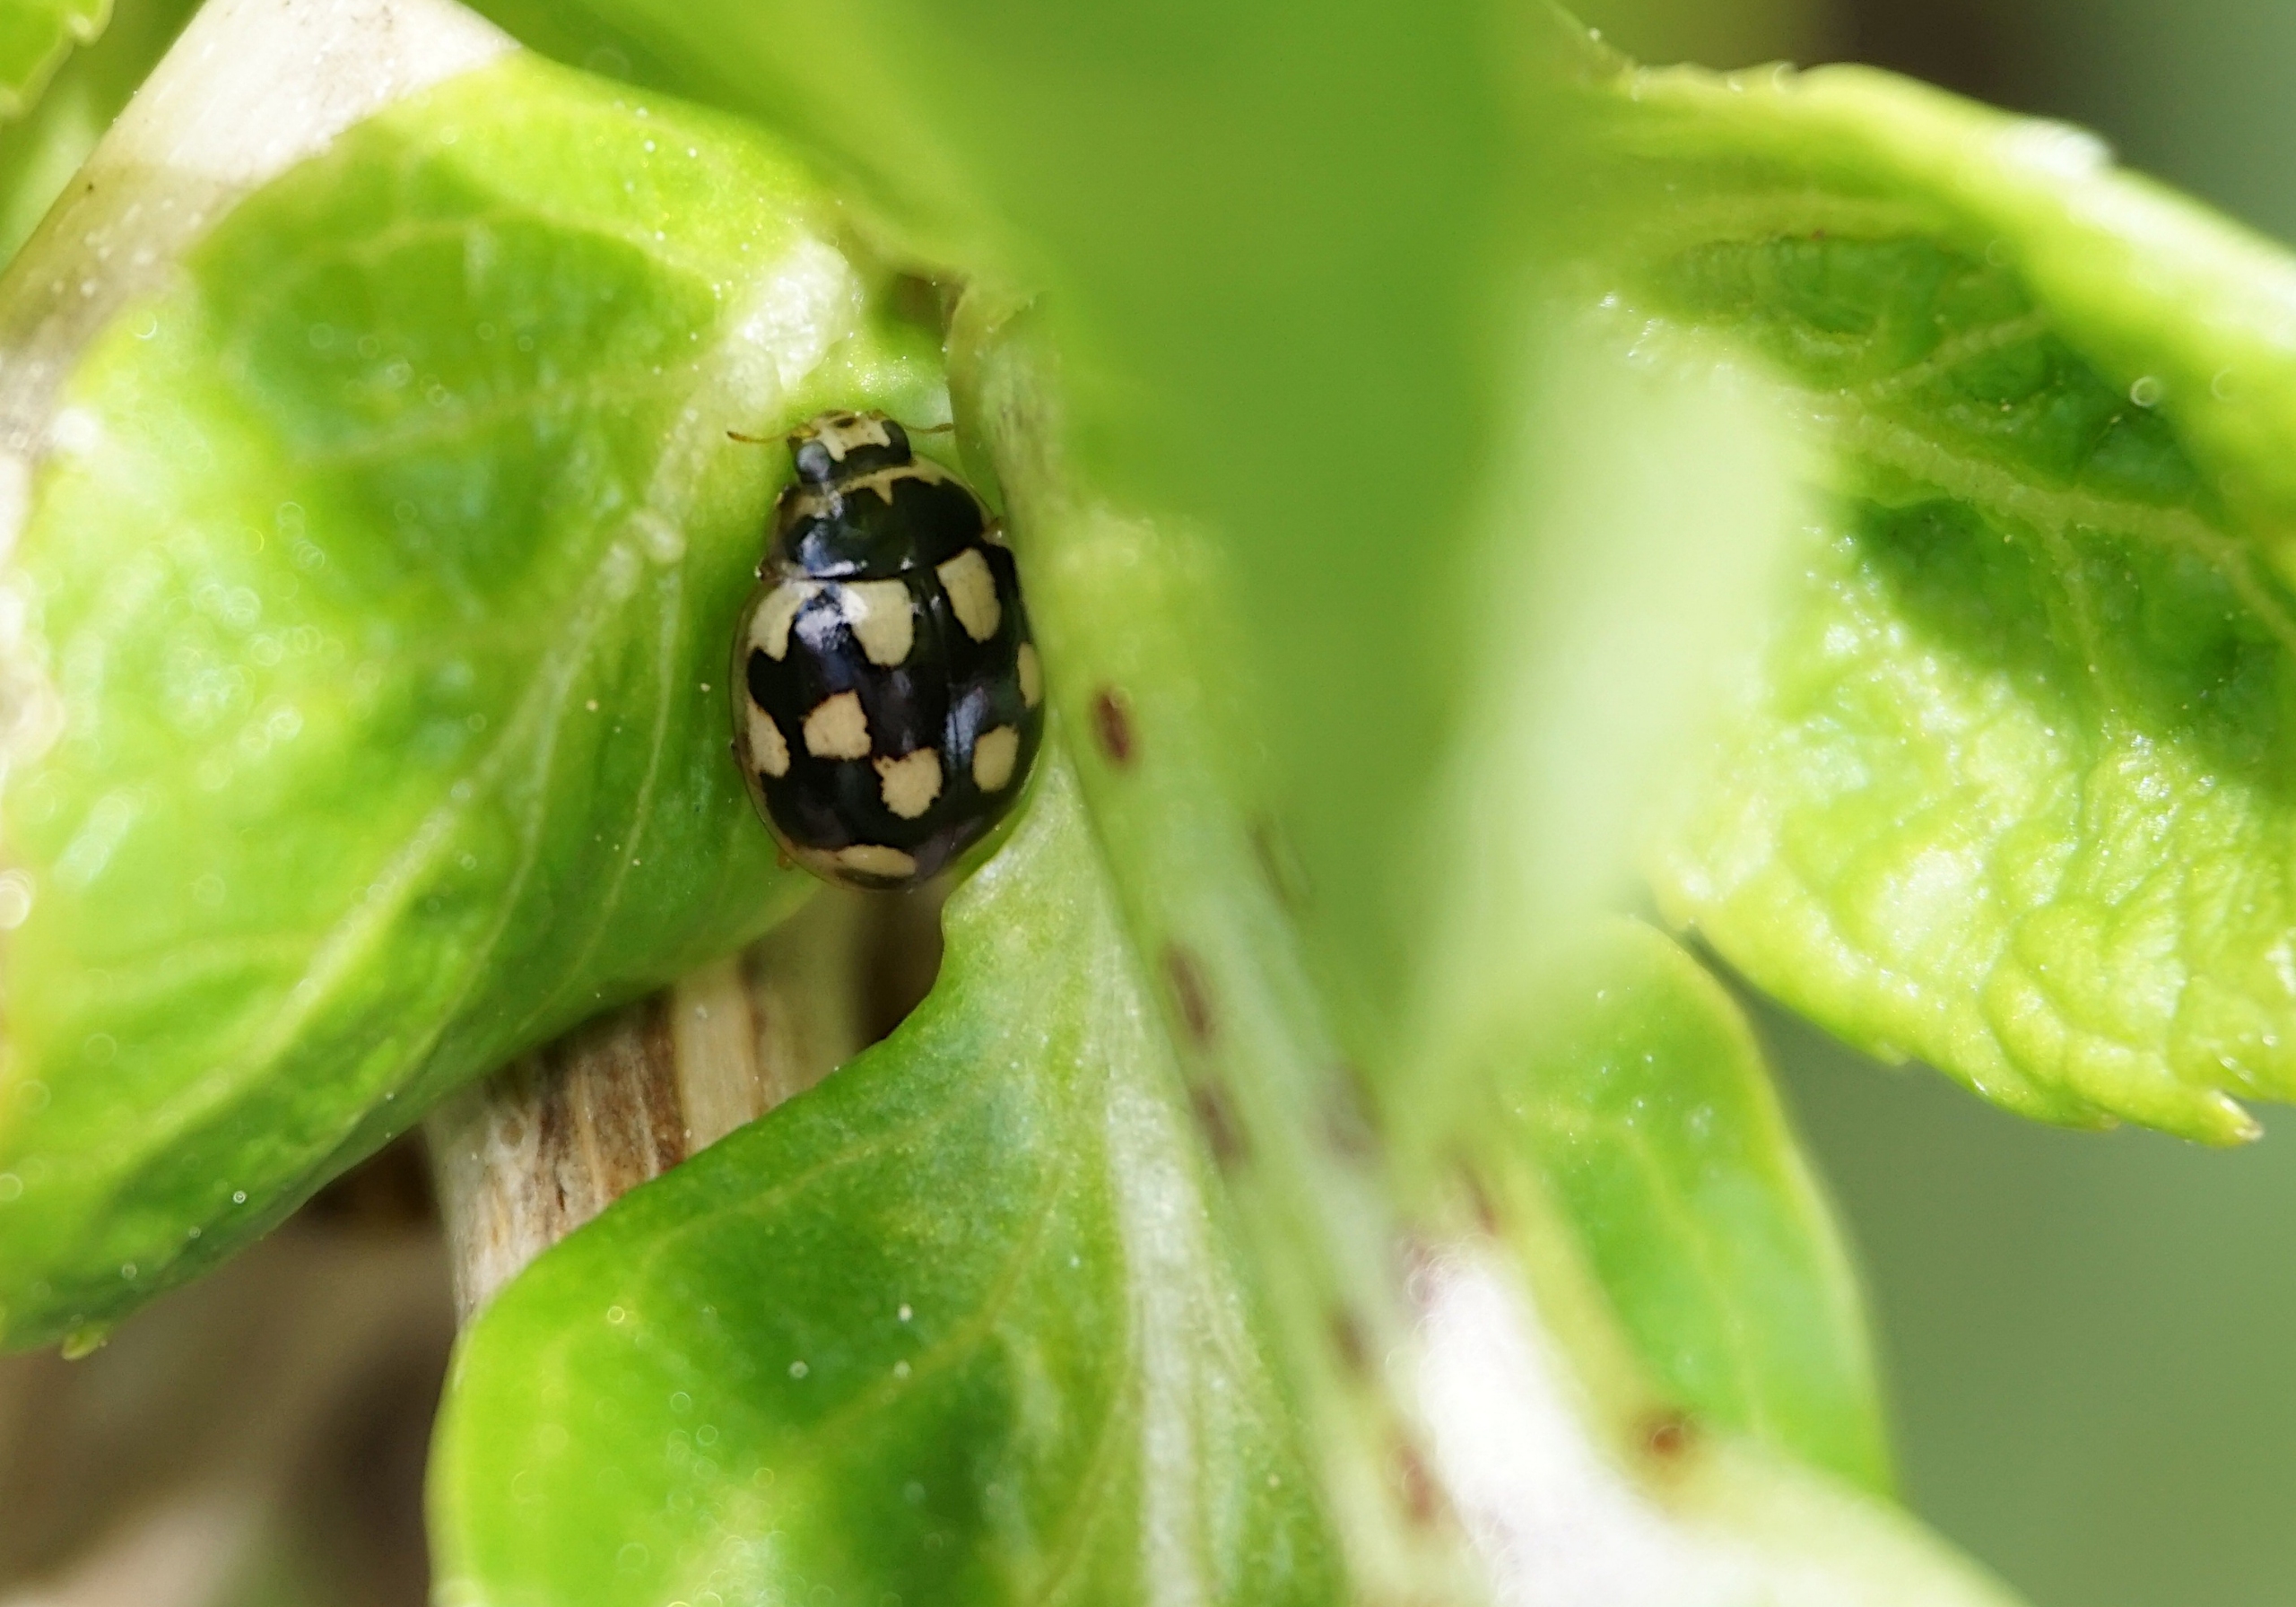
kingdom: Animalia
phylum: Arthropoda
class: Insecta
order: Coleoptera
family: Coccinellidae
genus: Propylaea
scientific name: Propylaea quatuordecimpunctata
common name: Skakbræt
